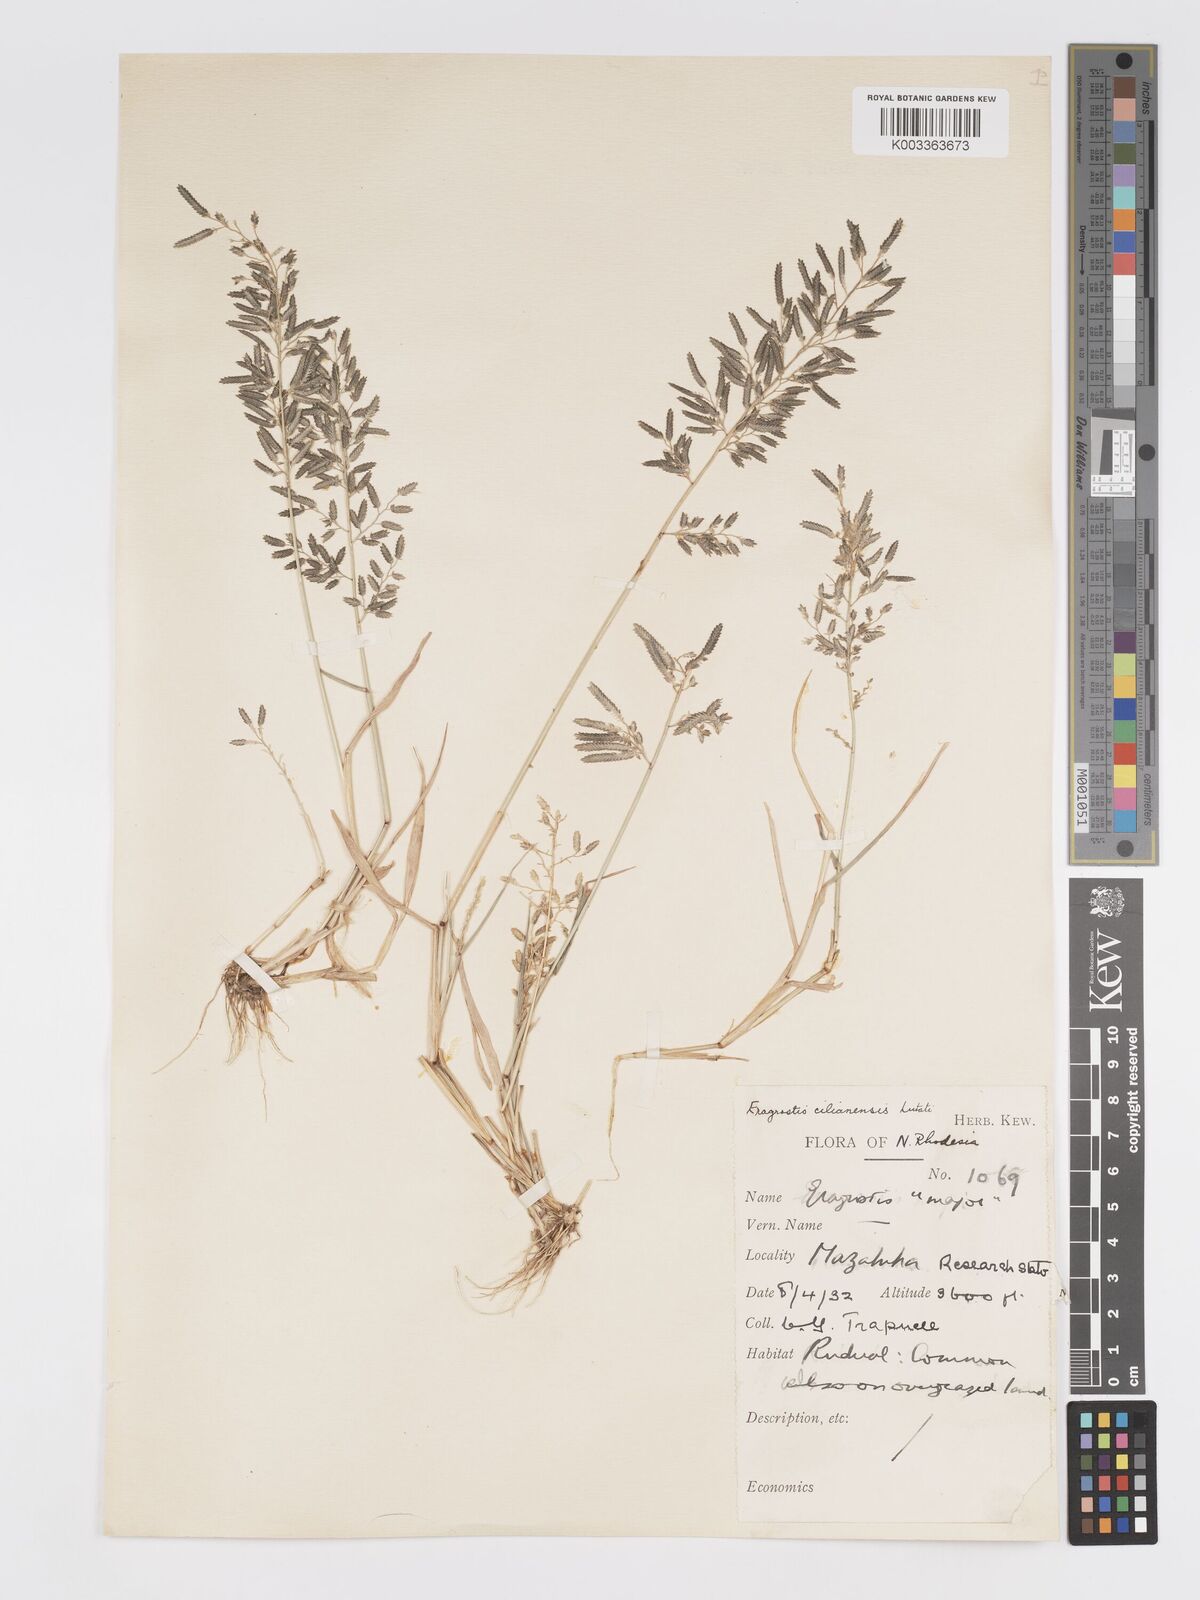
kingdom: Plantae
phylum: Tracheophyta
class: Liliopsida
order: Poales
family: Poaceae
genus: Eragrostis
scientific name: Eragrostis cilianensis
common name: Stinkgrass
